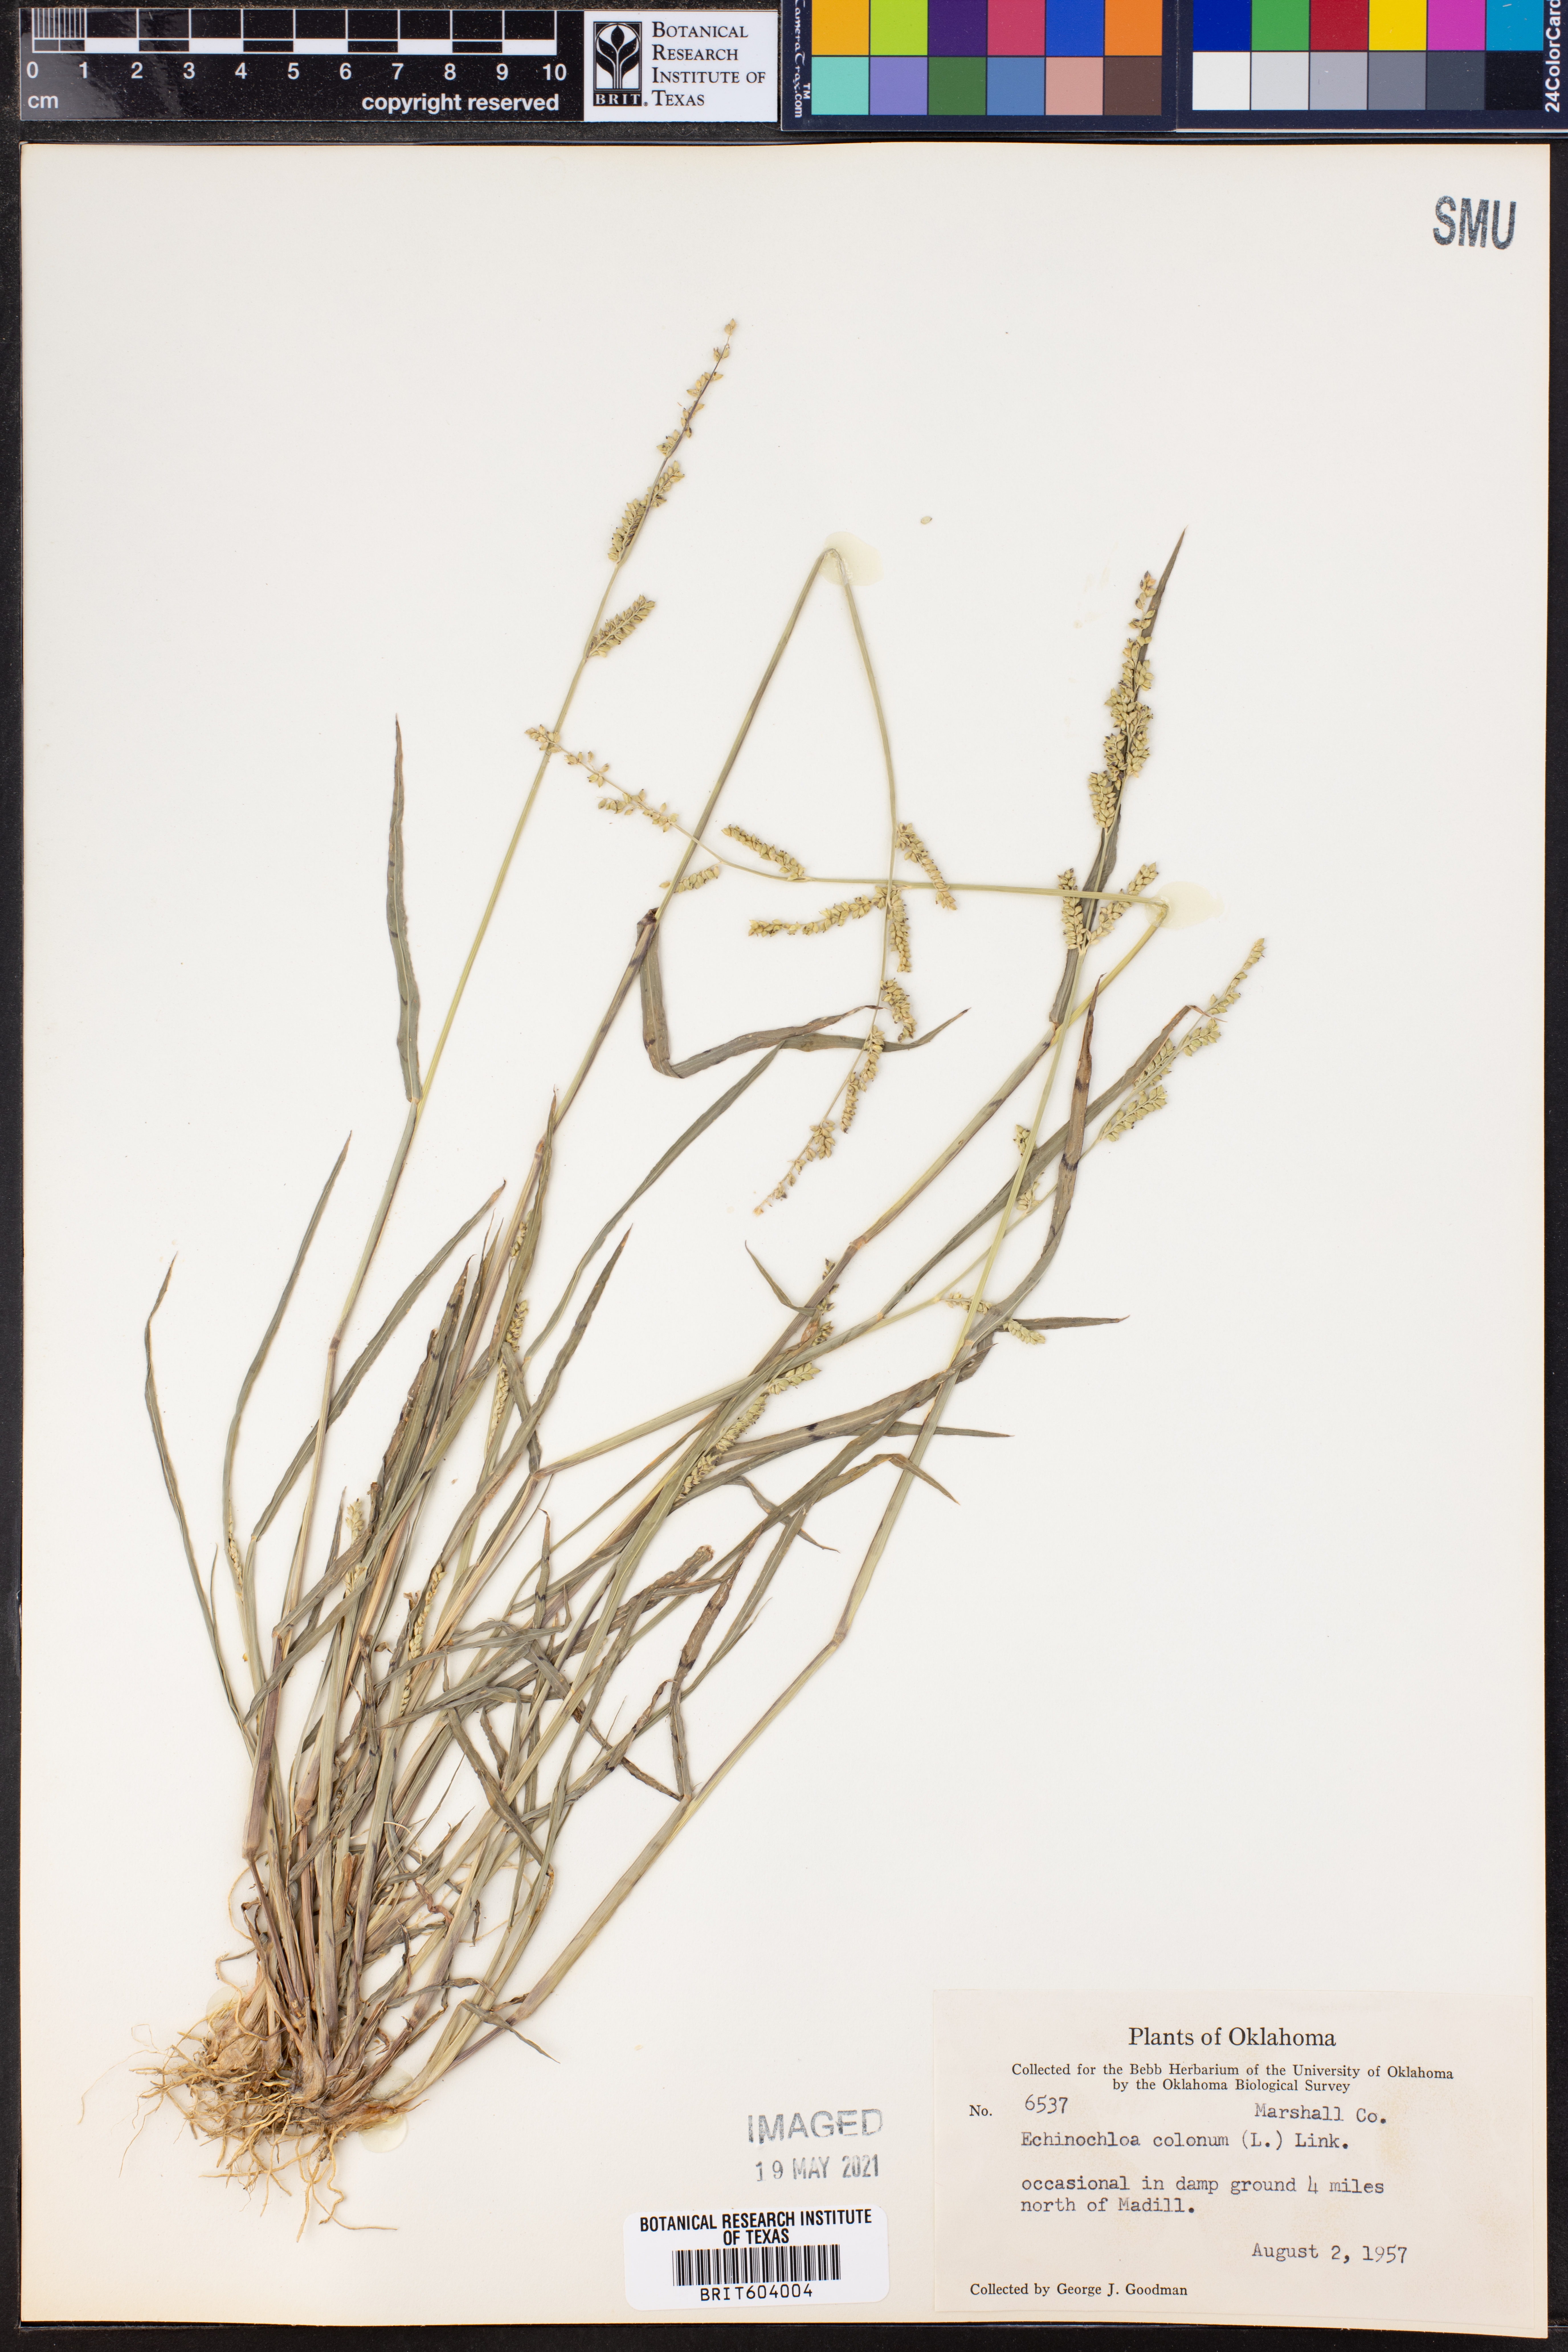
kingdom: Plantae
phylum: Tracheophyta
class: Liliopsida
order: Poales
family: Poaceae
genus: Echinochloa
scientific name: Echinochloa colonum
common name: Jungle rice
